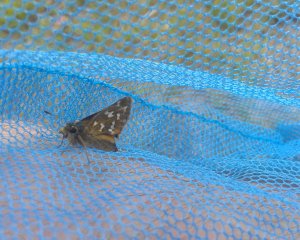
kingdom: Animalia
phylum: Arthropoda
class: Insecta
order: Lepidoptera
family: Hesperiidae
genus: Hesperia
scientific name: Hesperia comma
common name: Common Branded Skipper
